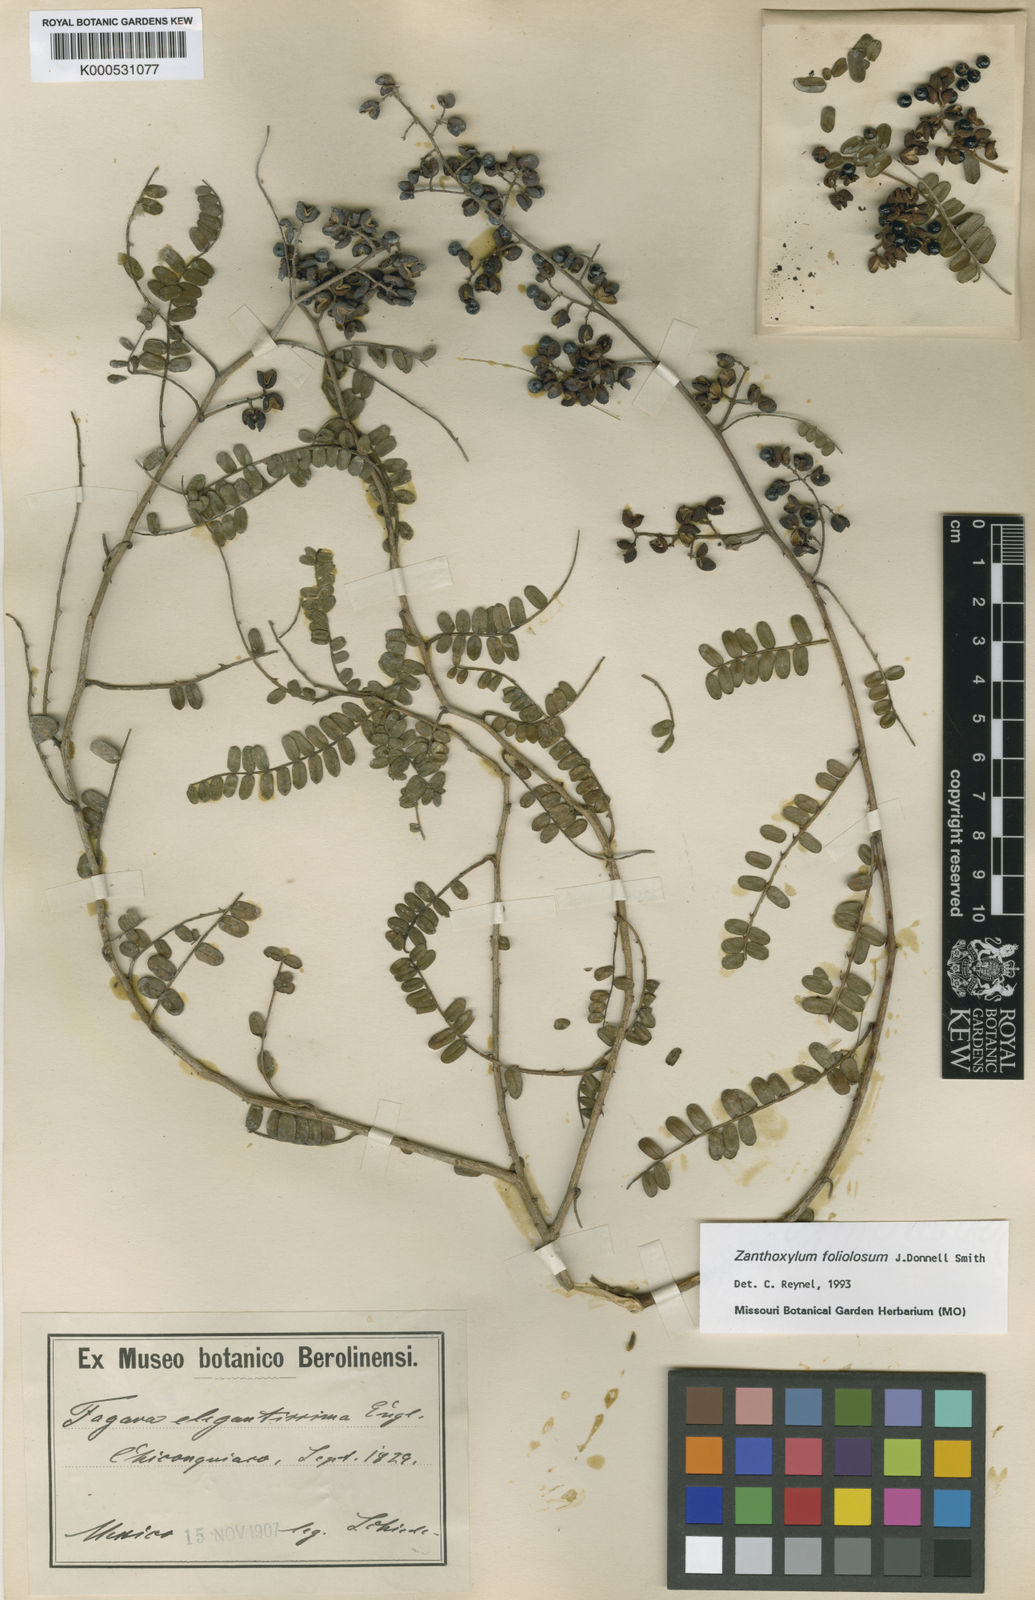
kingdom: Plantae
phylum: Tracheophyta
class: Magnoliopsida
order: Sapindales
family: Rutaceae
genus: Zanthoxylum
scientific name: Zanthoxylum elegantissimum
